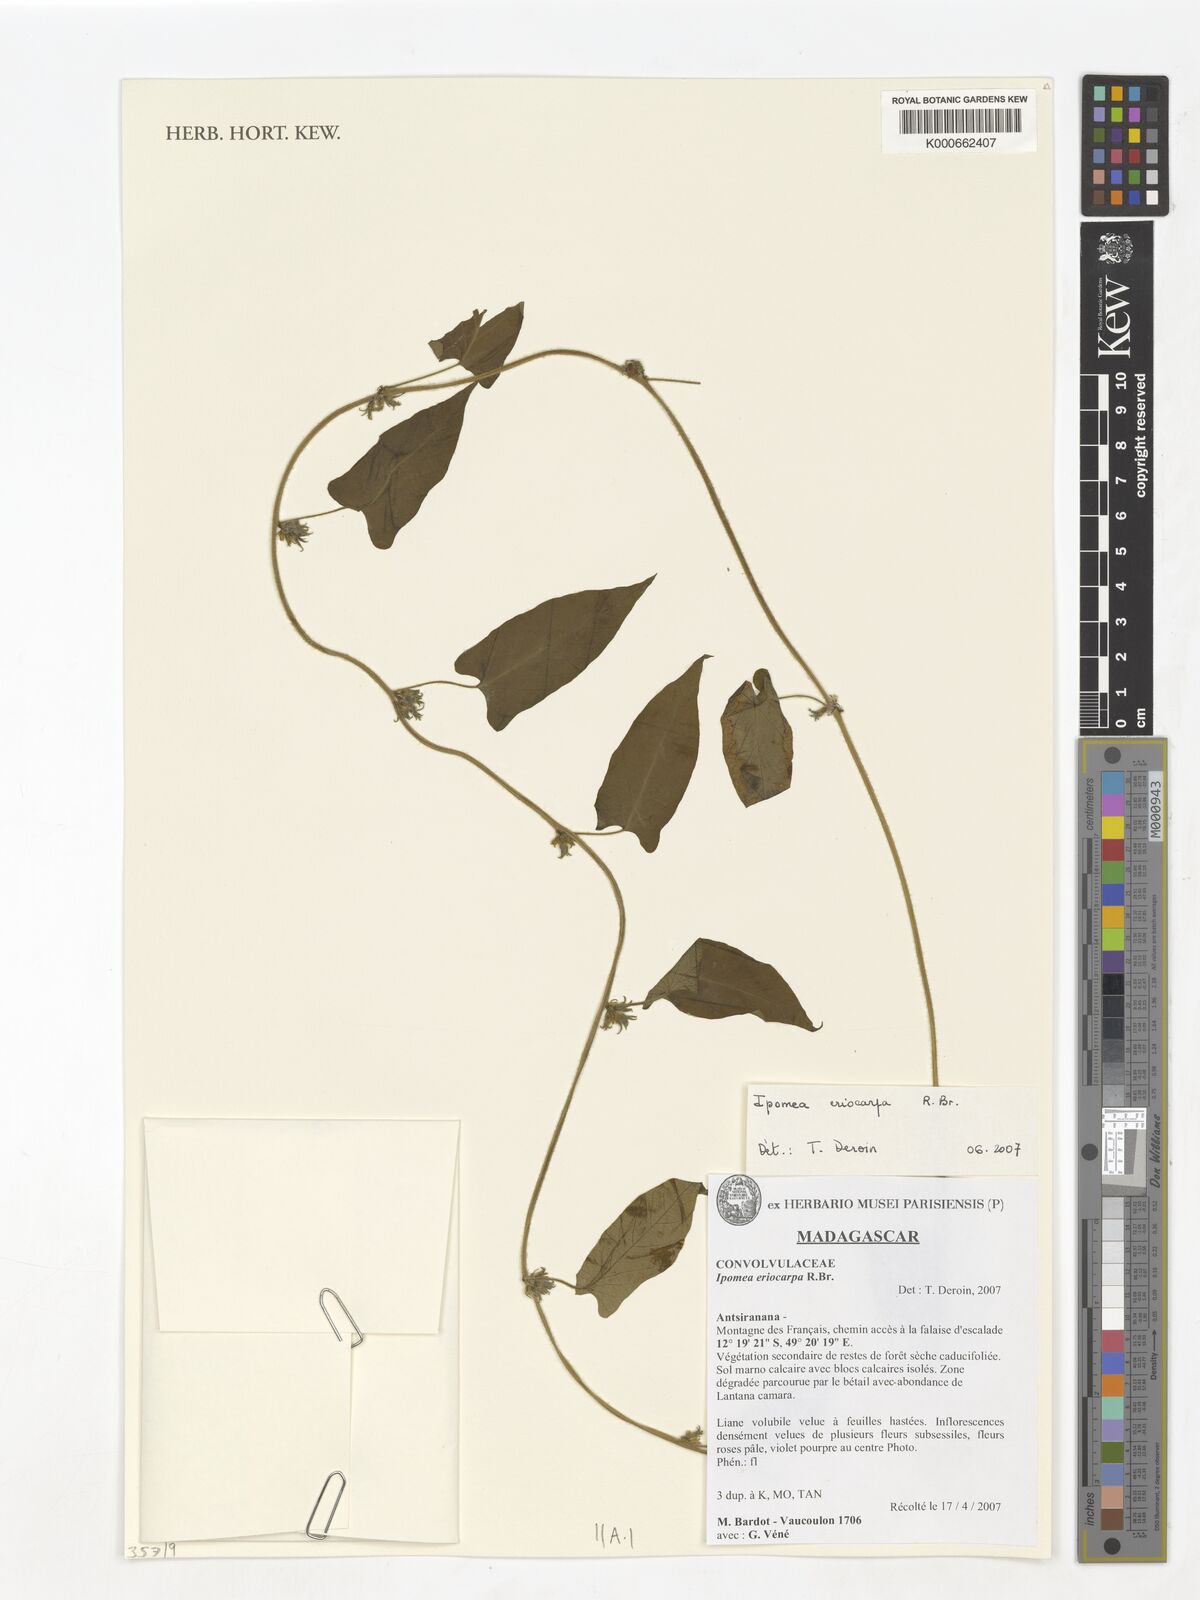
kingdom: Plantae
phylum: Tracheophyta
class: Magnoliopsida
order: Solanales
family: Convolvulaceae
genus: Ipomoea
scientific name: Ipomoea eriocarpa
